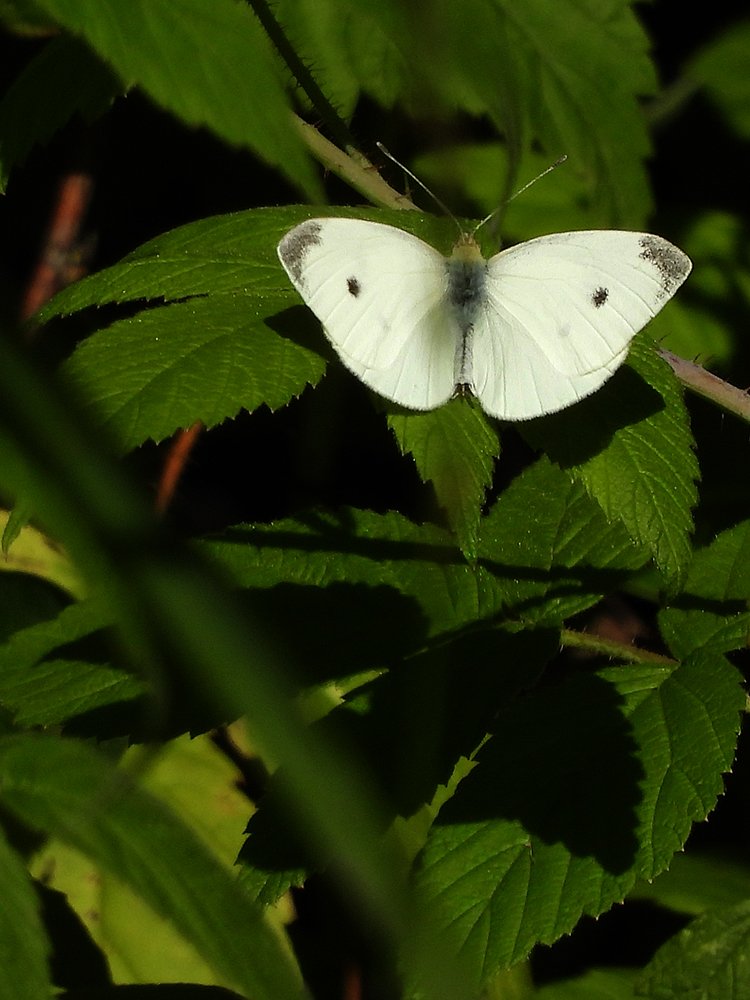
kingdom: Animalia
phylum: Arthropoda
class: Insecta
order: Lepidoptera
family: Pieridae
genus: Pieris
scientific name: Pieris rapae
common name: Cabbage White
